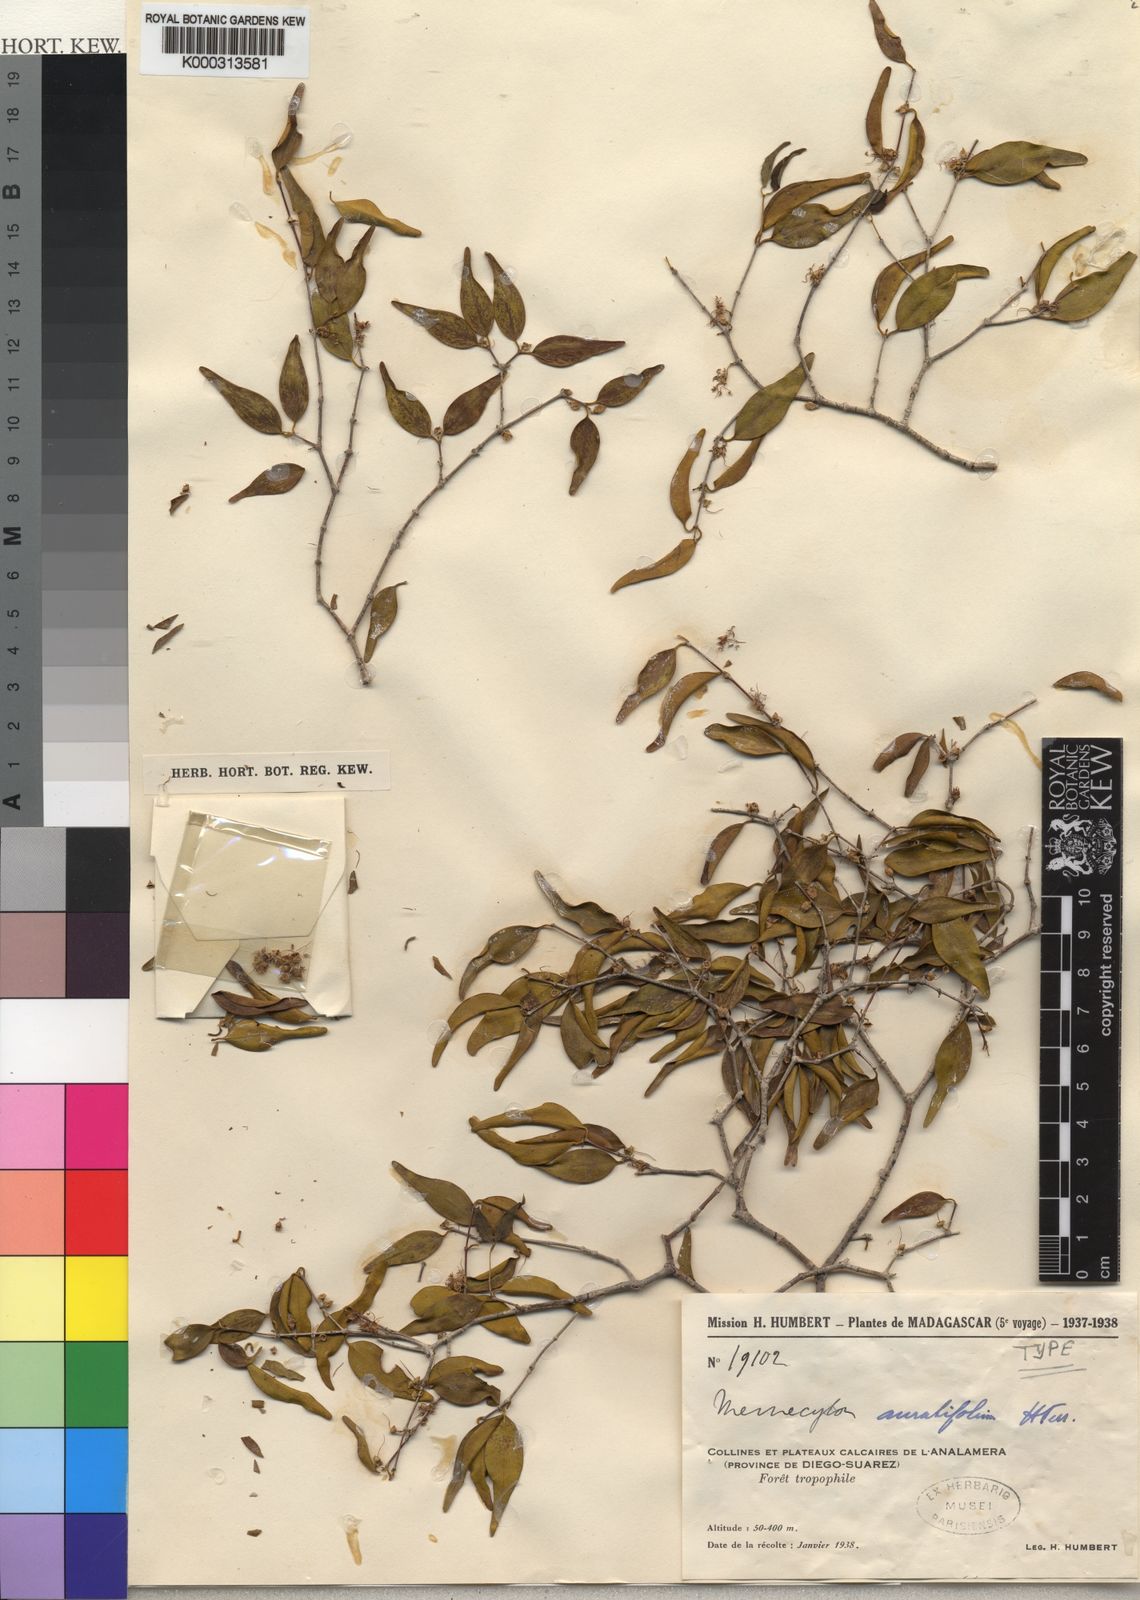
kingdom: Plantae
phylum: Tracheophyta
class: Magnoliopsida
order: Myrtales
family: Melastomataceae
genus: Memecylon
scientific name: Memecylon auratifolium
